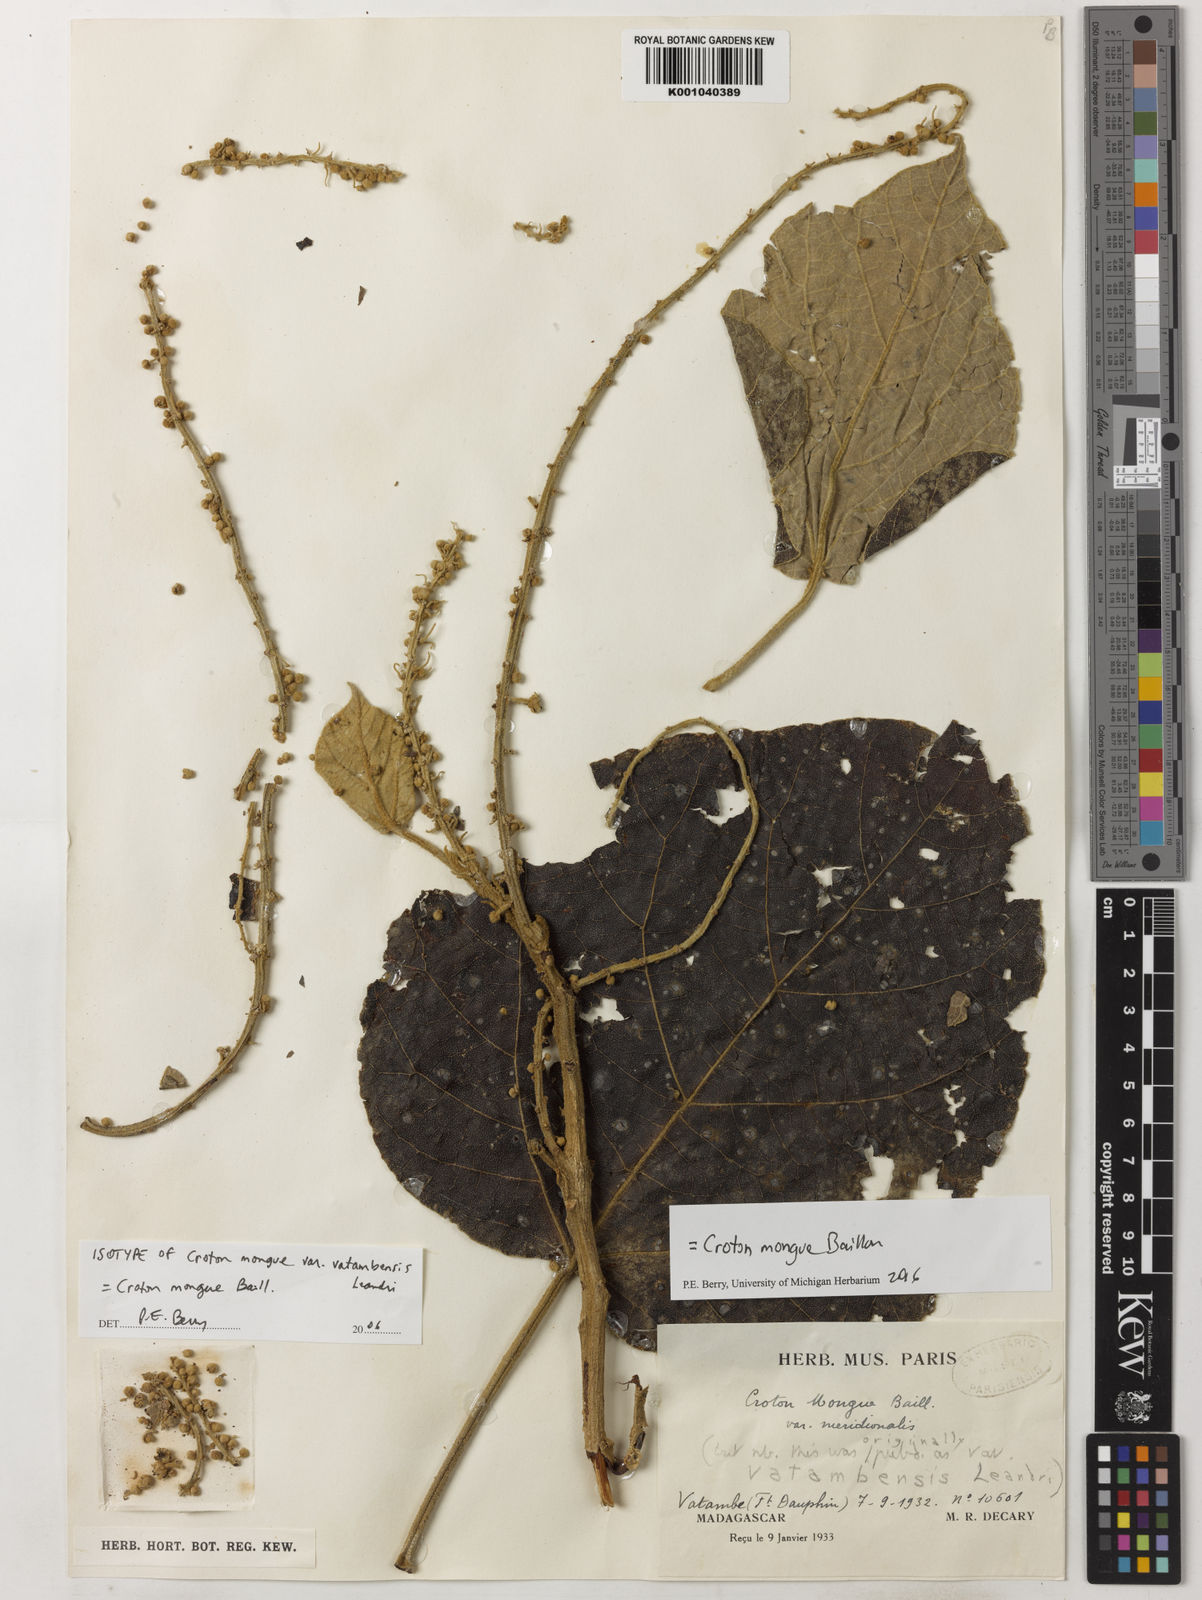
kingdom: Plantae
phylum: Tracheophyta
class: Magnoliopsida
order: Malpighiales
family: Euphorbiaceae
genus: Croton
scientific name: Croton mongue
